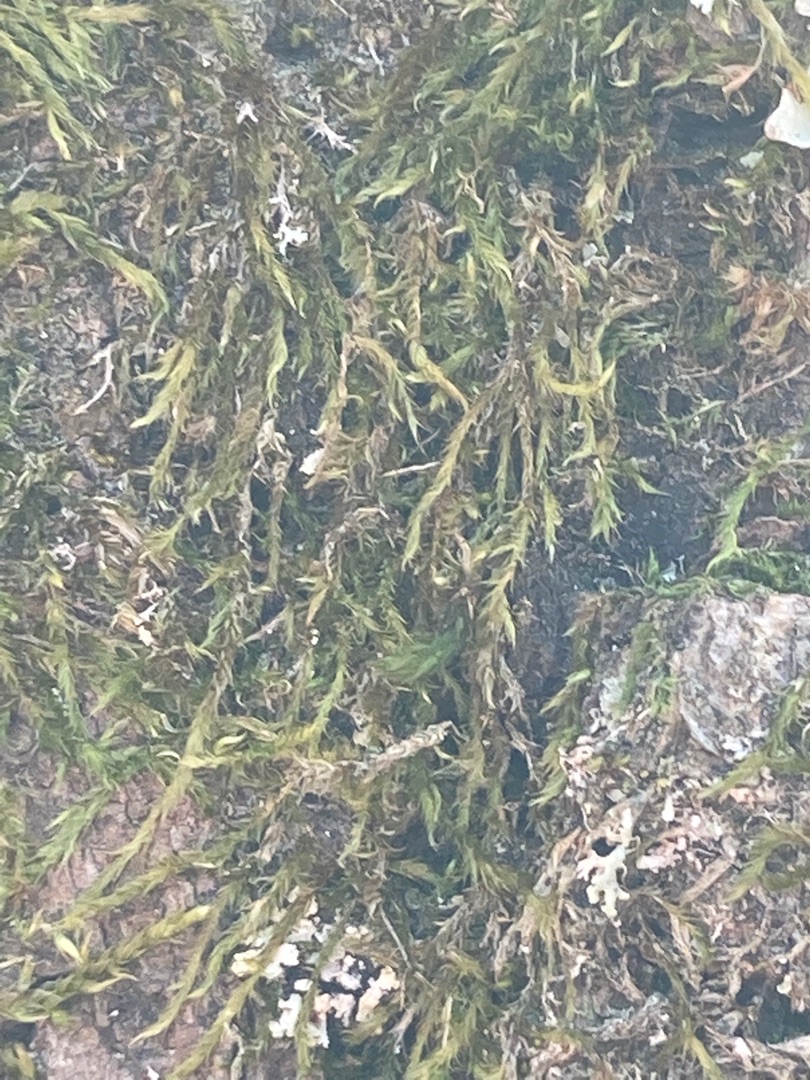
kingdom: Plantae
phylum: Bryophyta
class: Bryopsida
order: Hypnales
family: Hypnaceae
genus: Hypnum
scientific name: Hypnum cupressiforme
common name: Almindelig cypresmos
